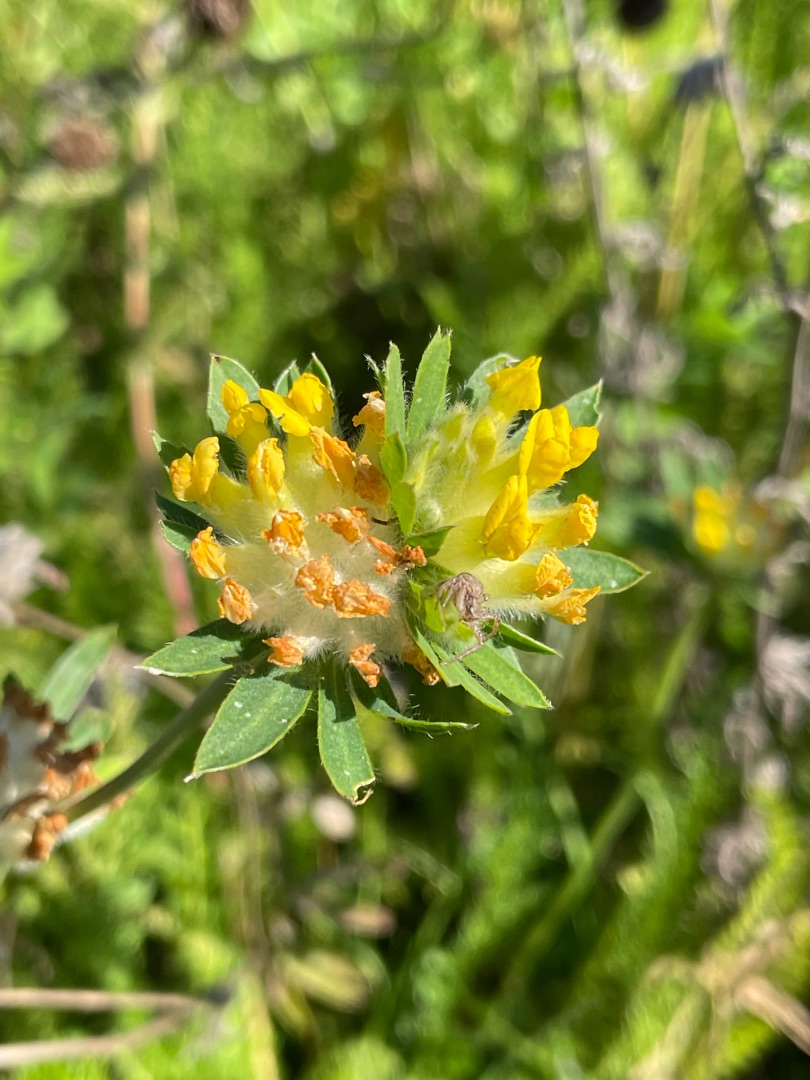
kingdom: Plantae
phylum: Tracheophyta
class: Magnoliopsida
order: Fabales
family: Fabaceae
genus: Anthyllis
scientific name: Anthyllis vulneraria
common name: Rundbælg
